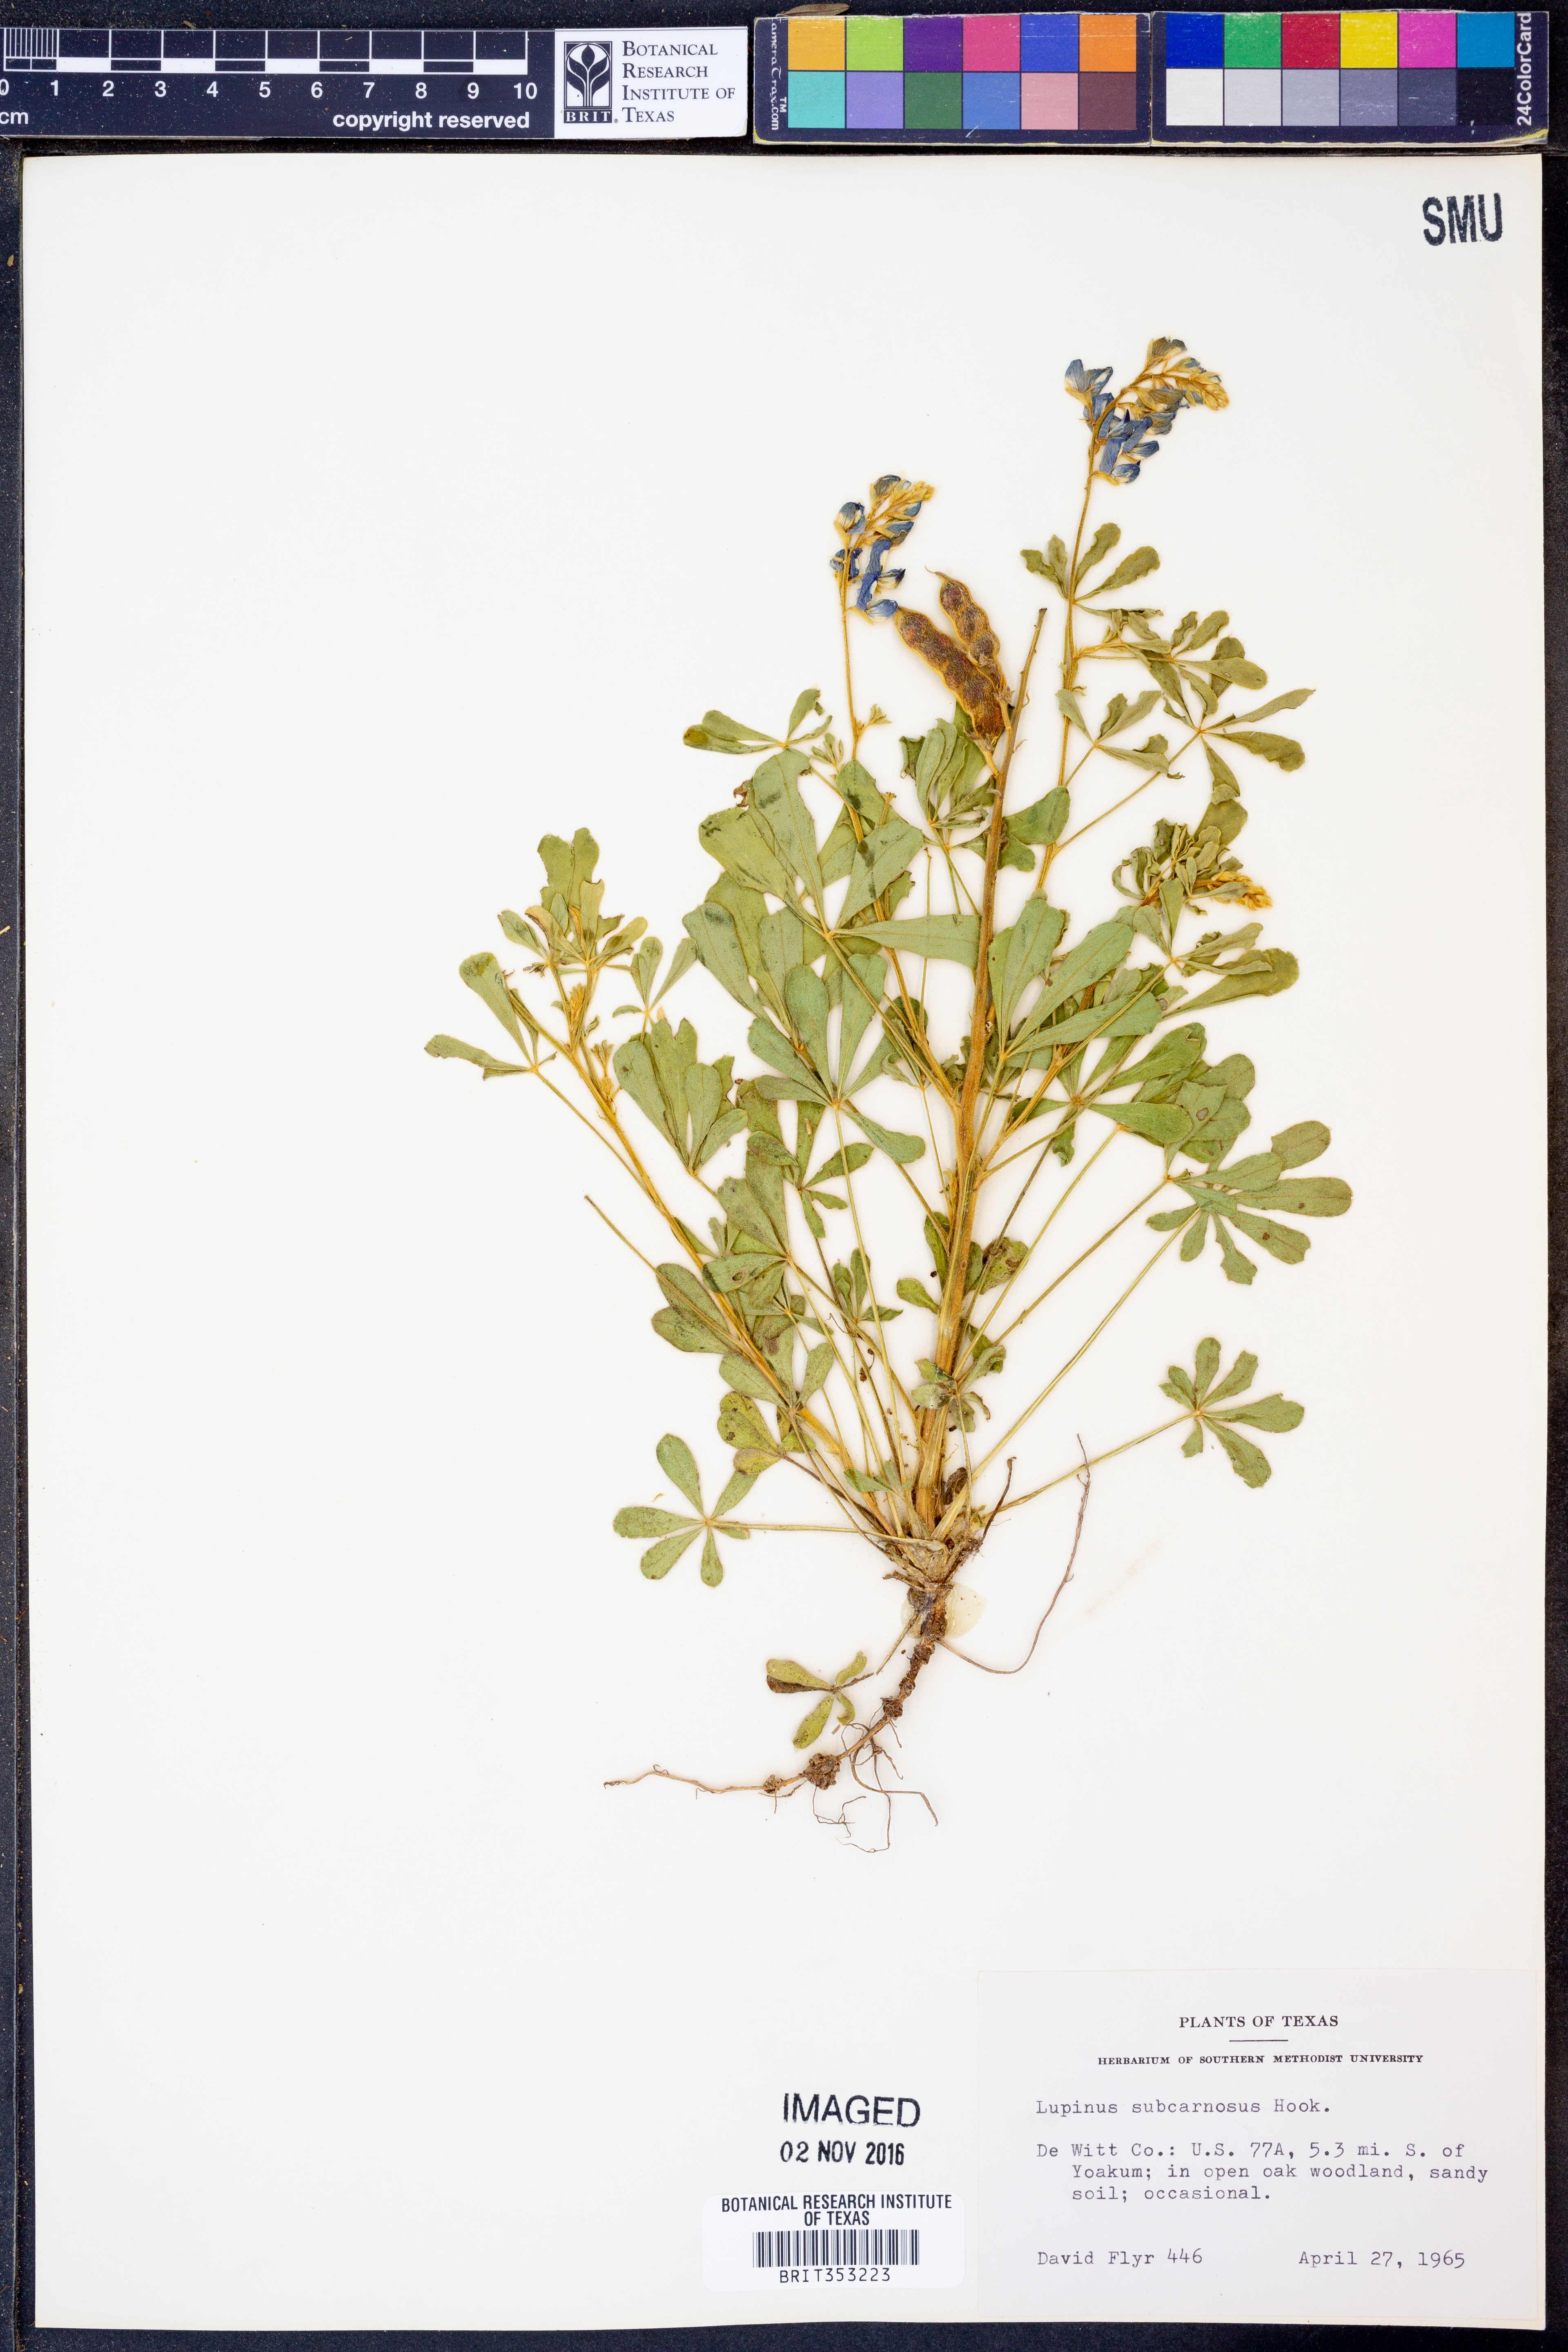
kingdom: Plantae
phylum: Tracheophyta
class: Magnoliopsida
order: Fabales
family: Fabaceae
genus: Lupinus
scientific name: Lupinus subcarnosus
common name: Texas bluebonnet
